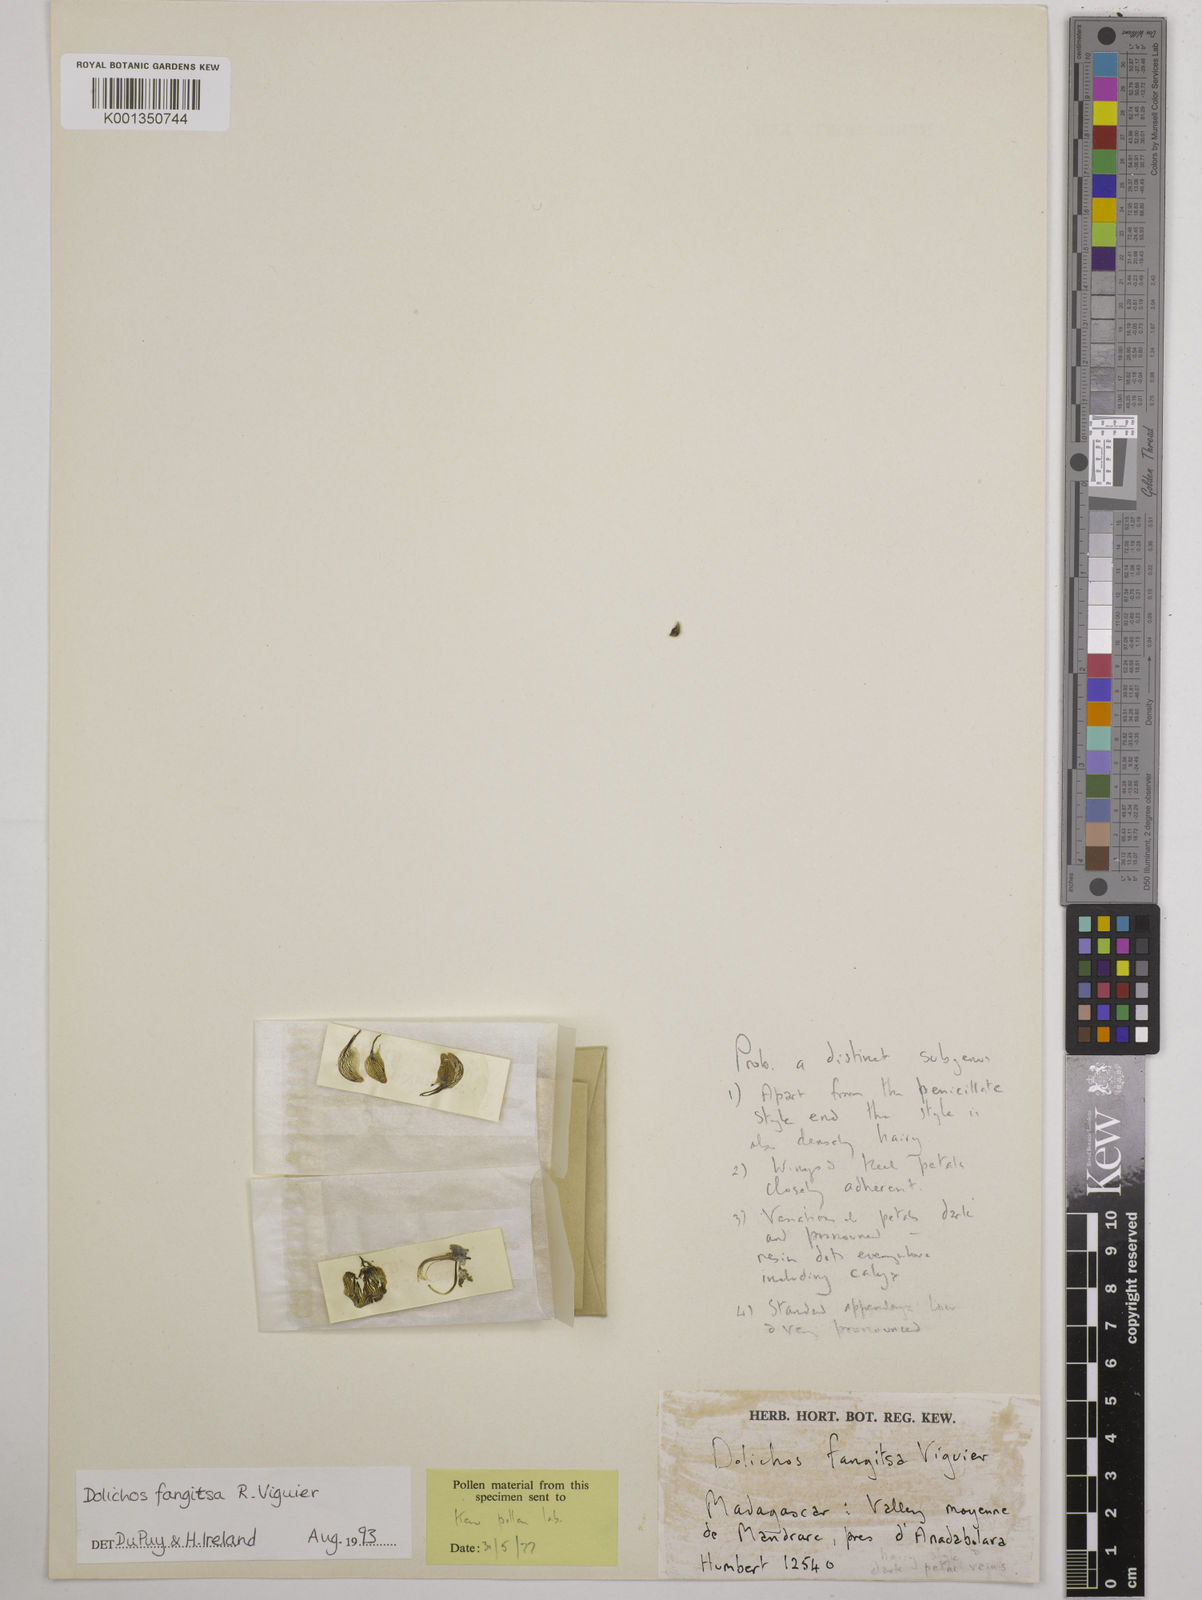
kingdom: Plantae
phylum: Tracheophyta
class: Magnoliopsida
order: Fabales
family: Fabaceae
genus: Dolichos
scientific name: Dolichos fangitsa
